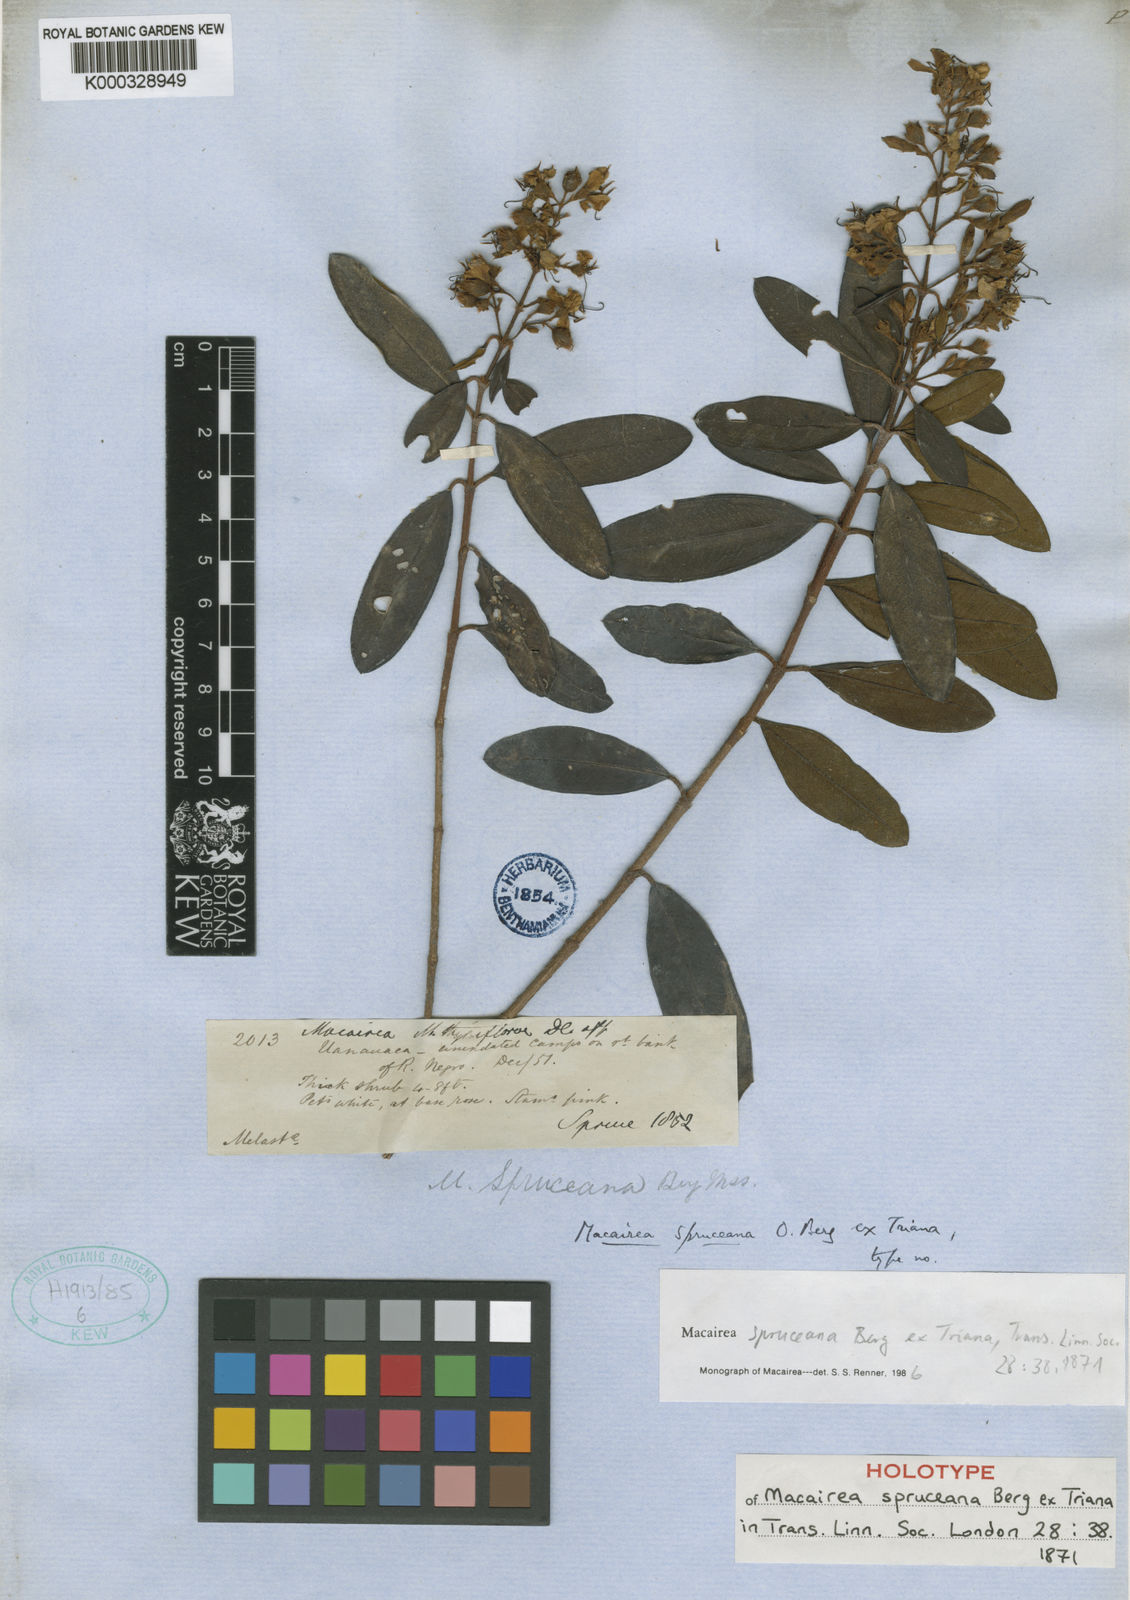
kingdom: Plantae
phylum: Tracheophyta
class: Magnoliopsida
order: Myrtales
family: Melastomataceae
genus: Macairea
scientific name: Macairea spruceana
